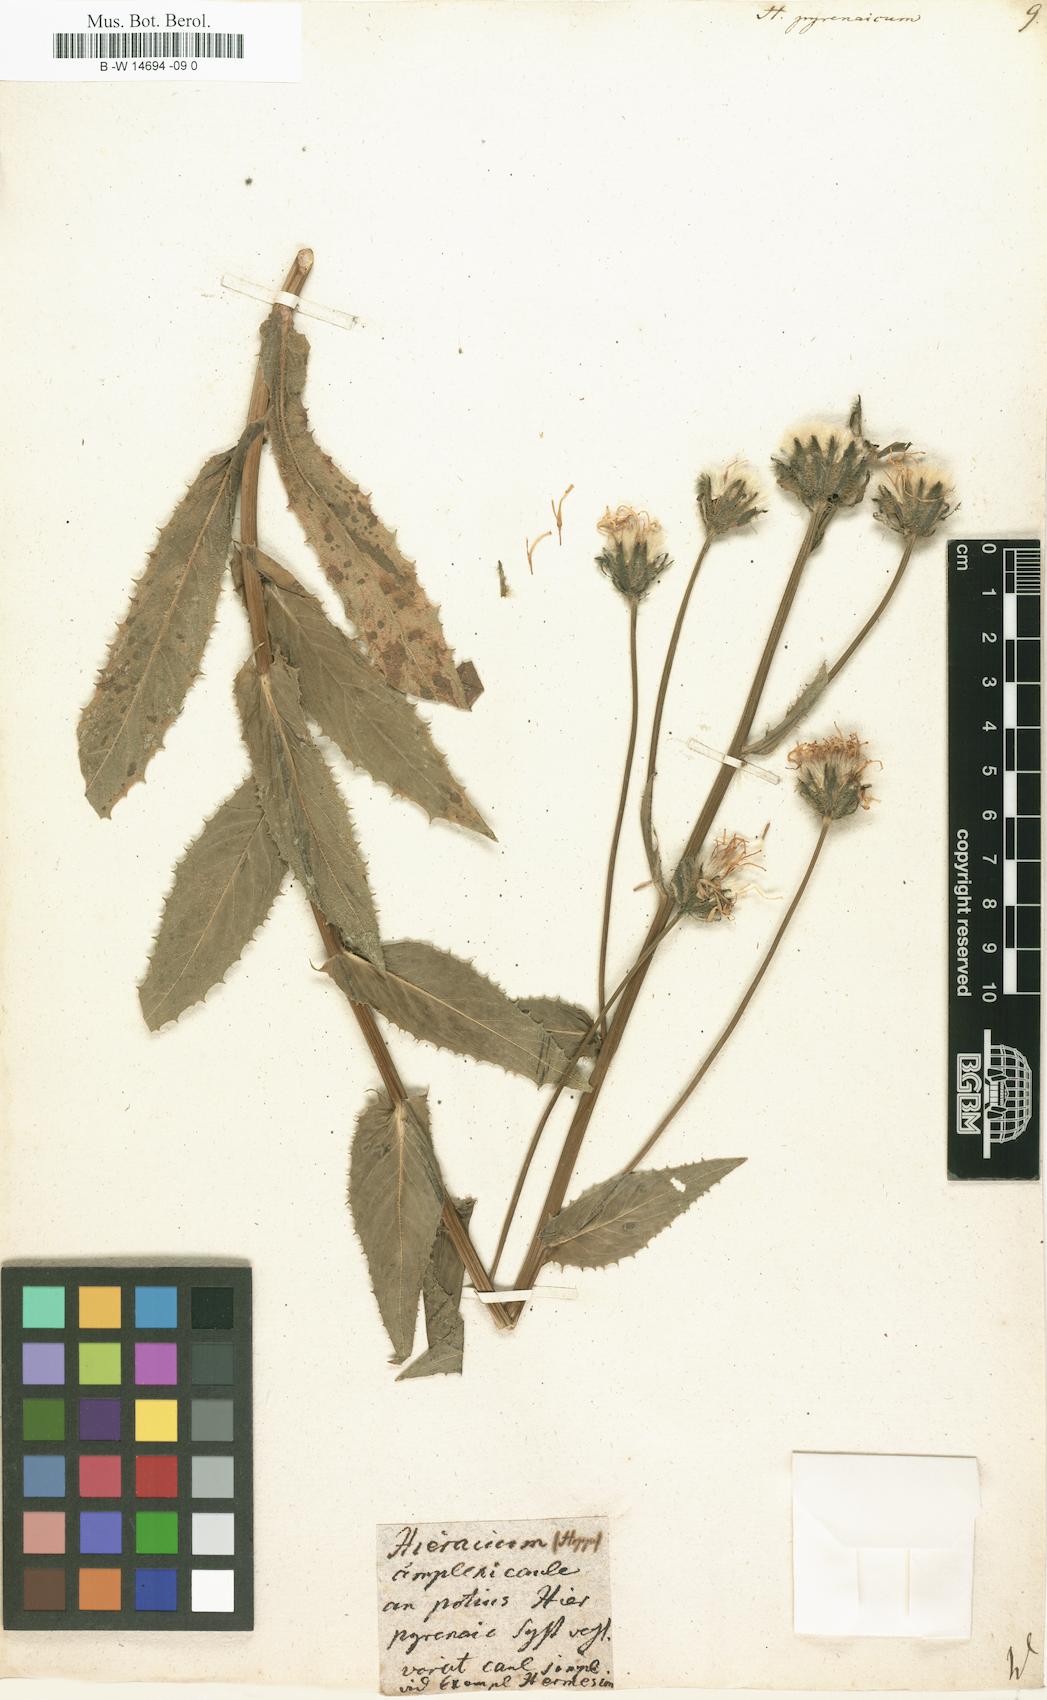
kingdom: Plantae
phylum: Tracheophyta
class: Magnoliopsida
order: Asterales
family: Asteraceae
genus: Hieracium
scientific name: Hieracium pyrenaicum
